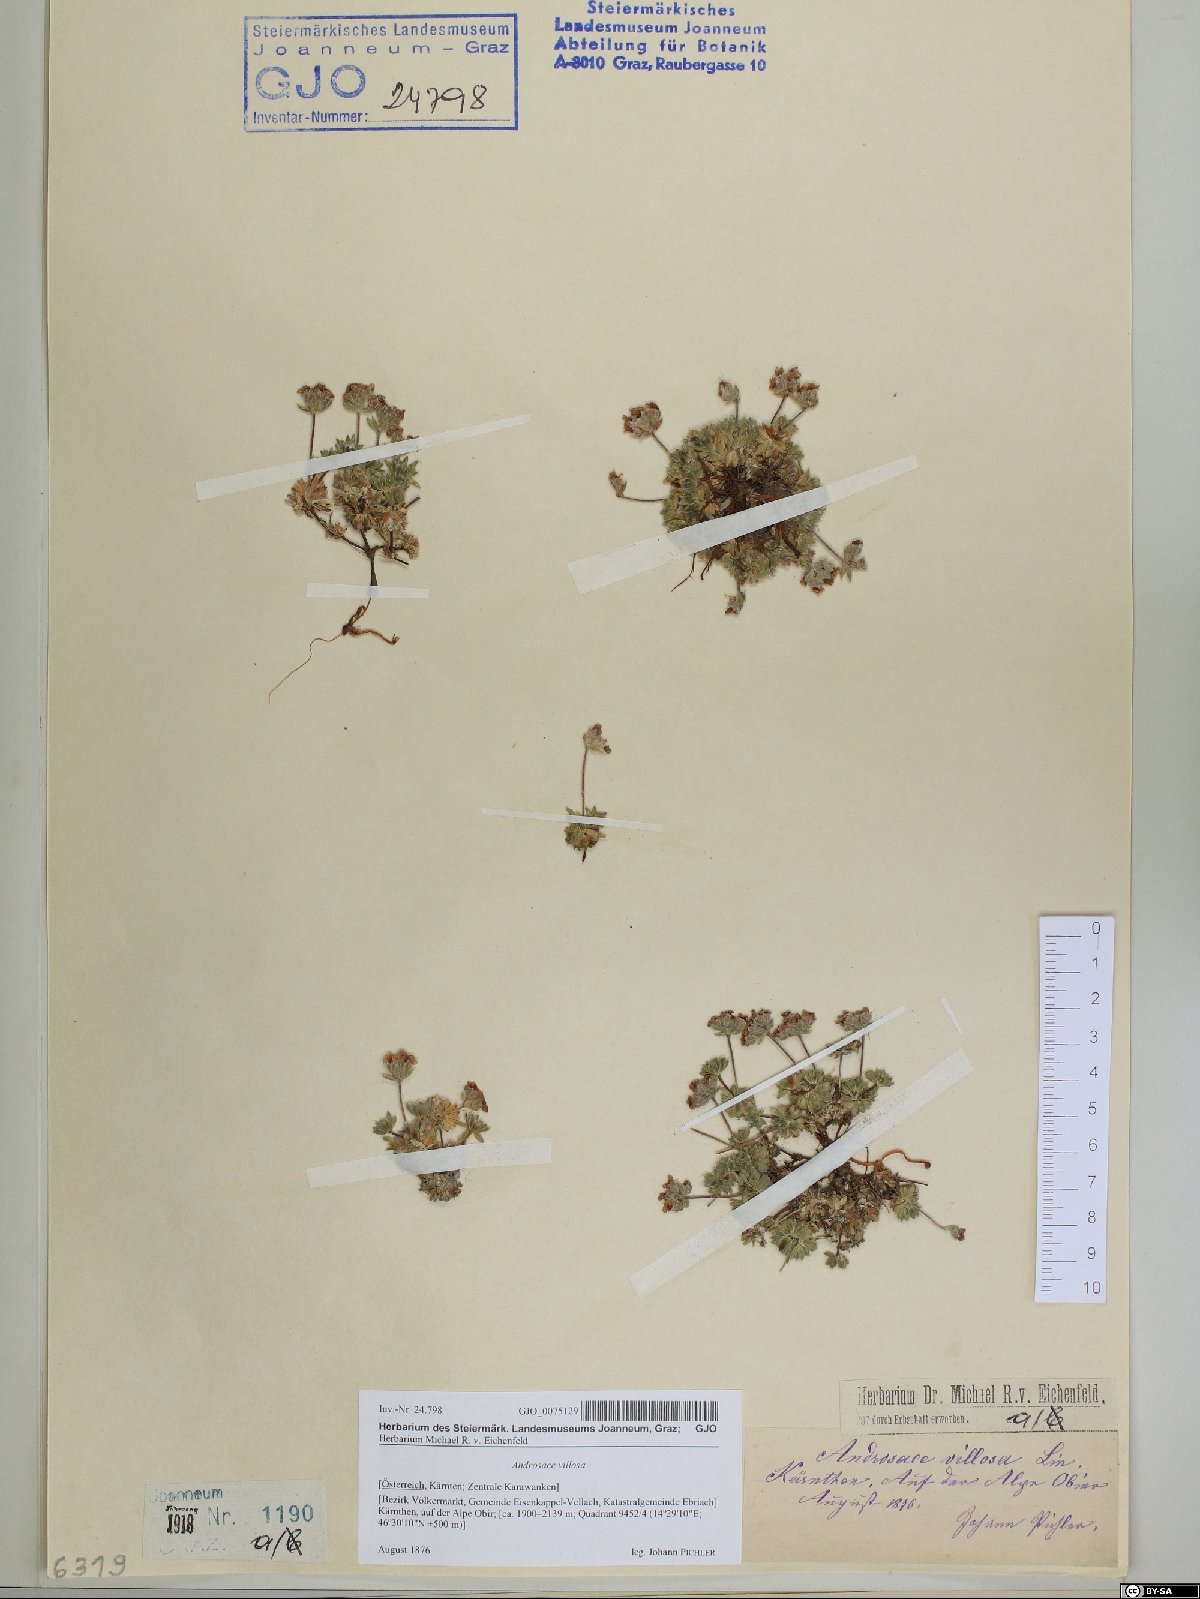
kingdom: Plantae
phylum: Tracheophyta
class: Magnoliopsida
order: Ericales
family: Primulaceae
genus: Androsace
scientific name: Androsace villosa
